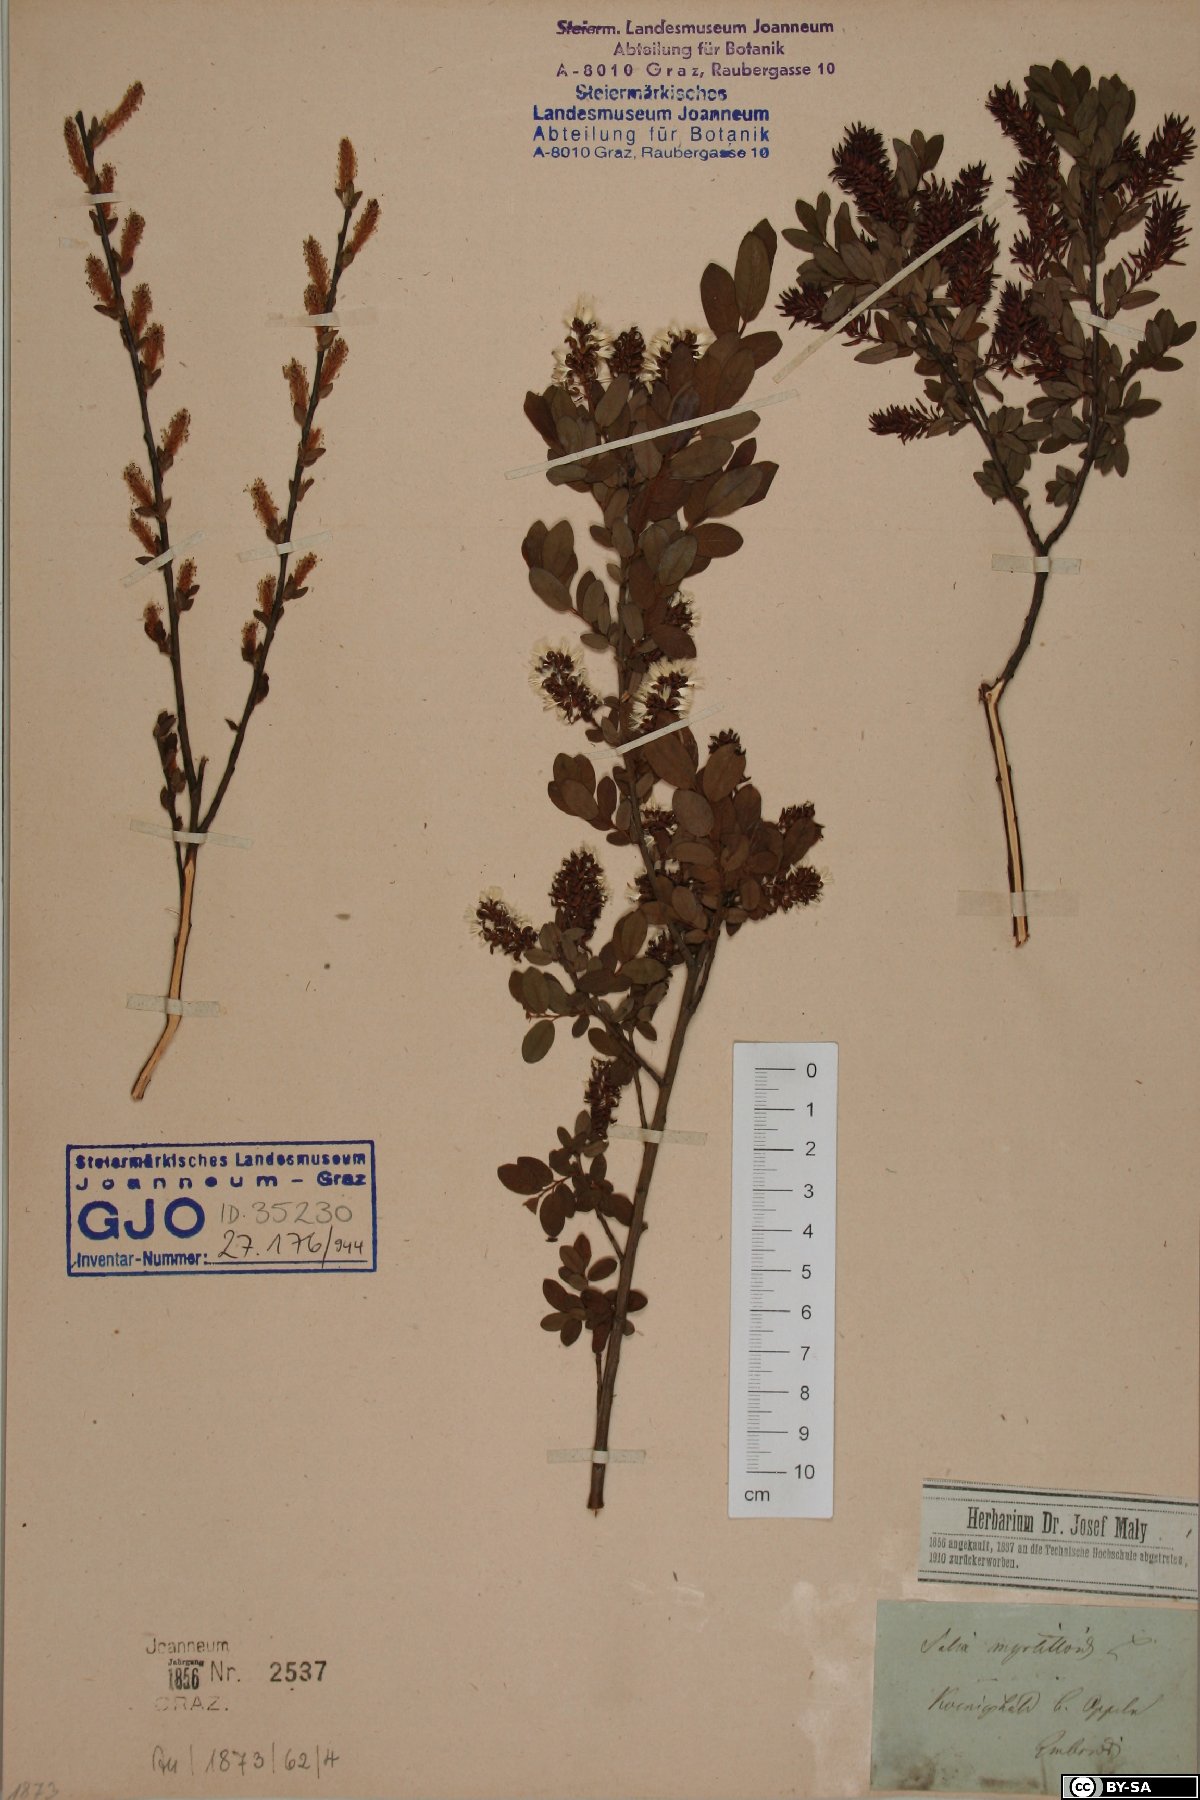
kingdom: Plantae
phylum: Tracheophyta
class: Magnoliopsida
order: Malpighiales
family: Salicaceae
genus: Salix
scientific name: Salix myrtilloides
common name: Myrtle-leaved willow
